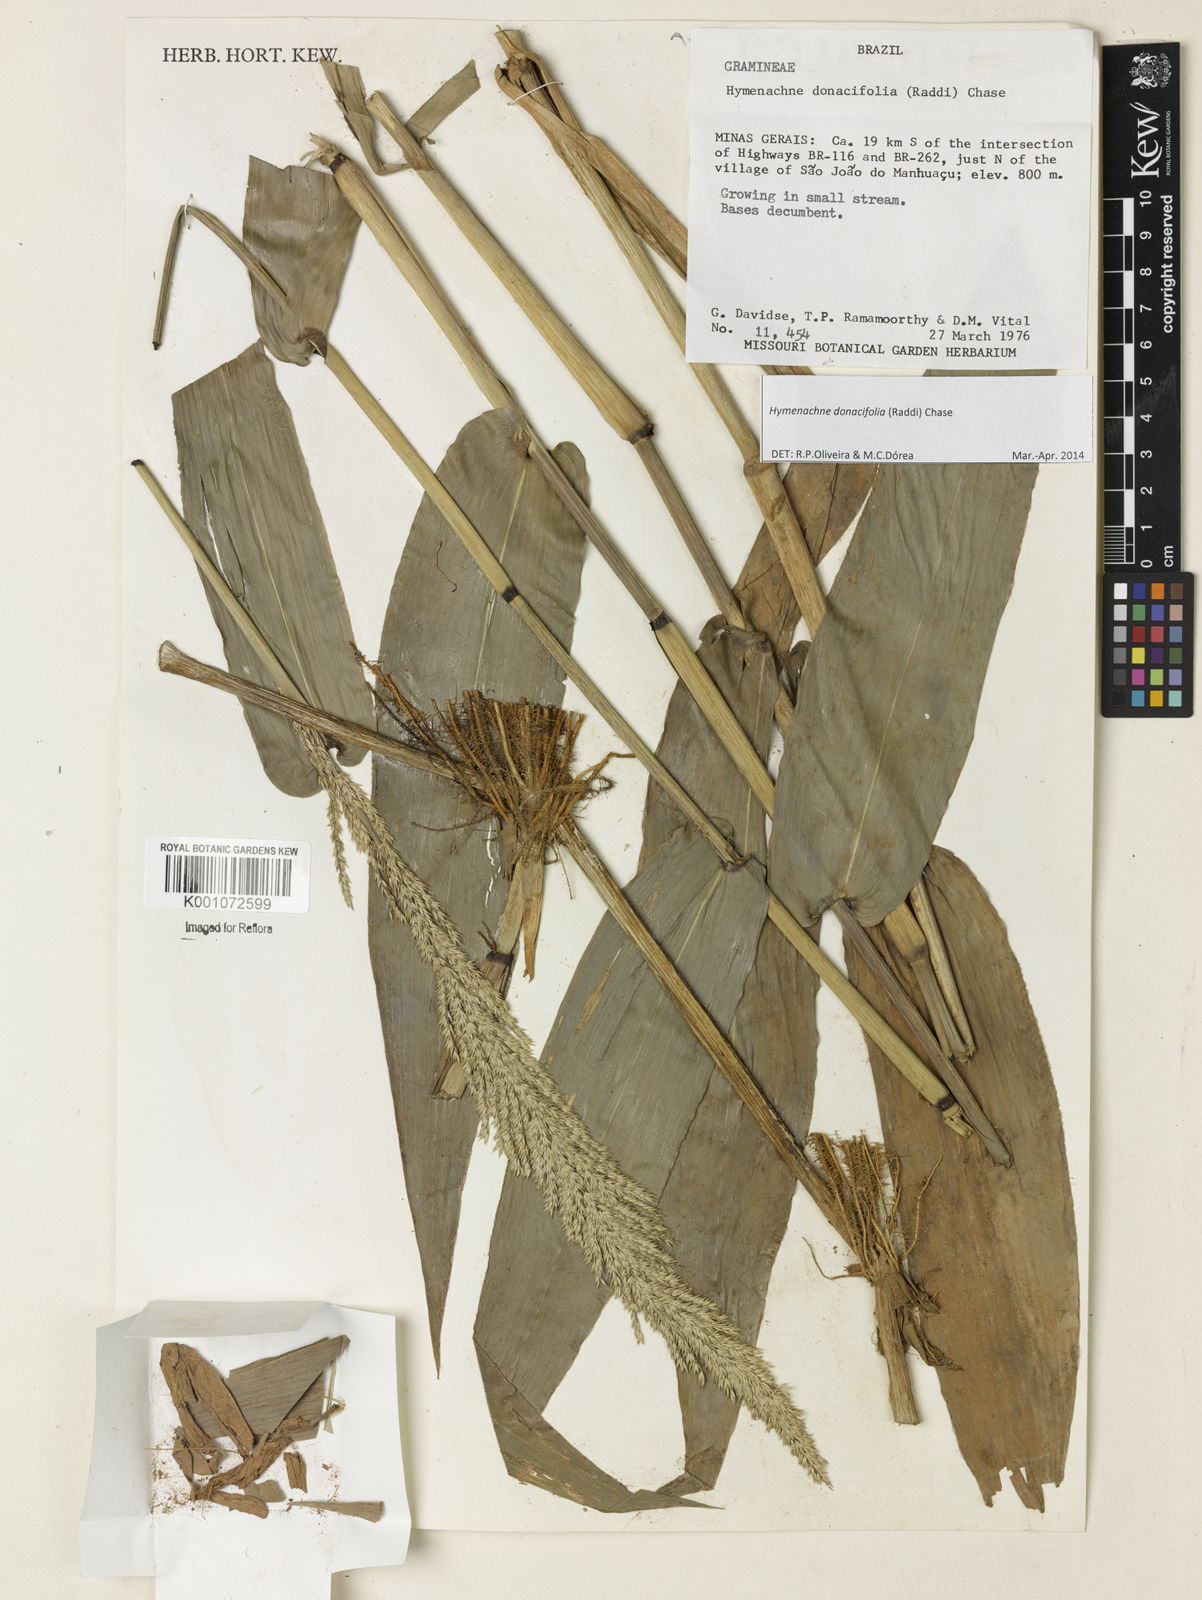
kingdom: Plantae
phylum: Tracheophyta
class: Liliopsida
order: Poales
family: Poaceae
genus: Hymenachne
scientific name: Hymenachne donacifolia
